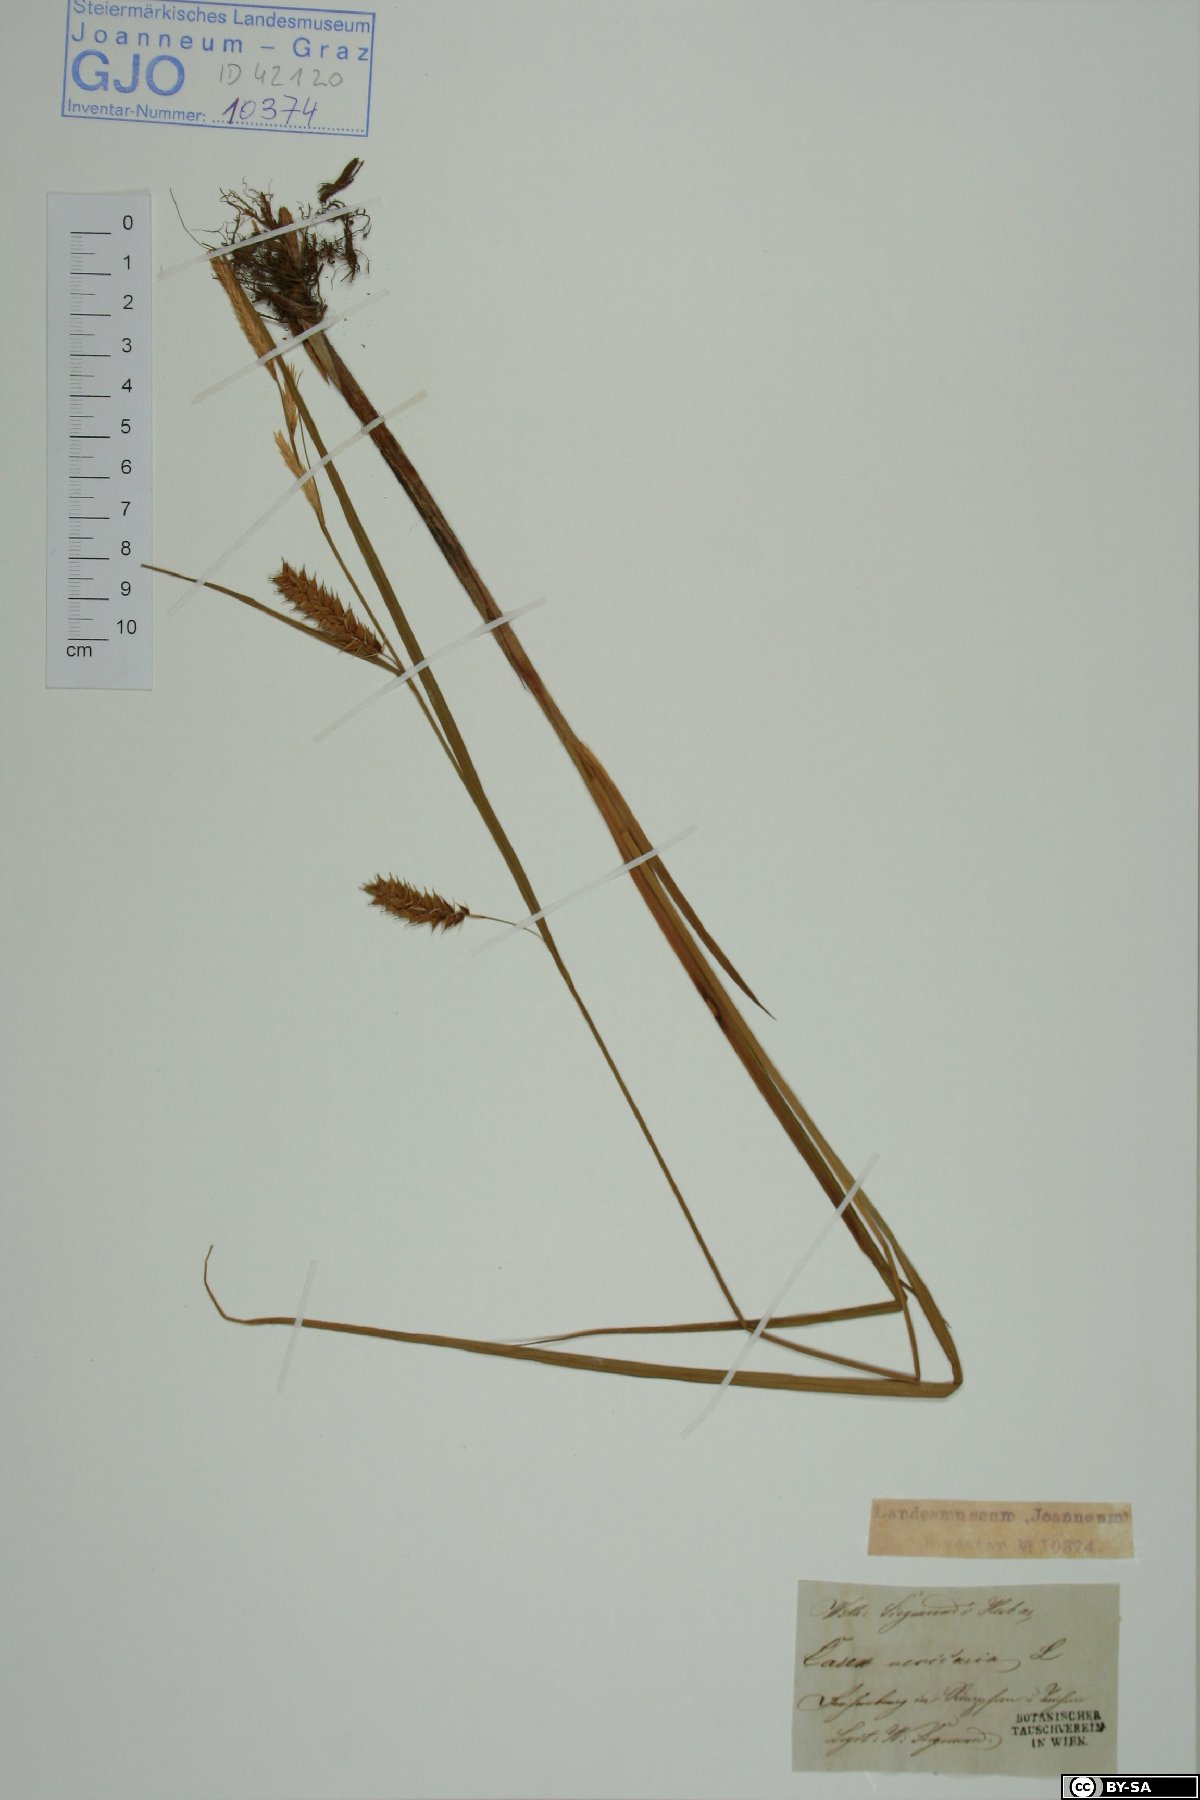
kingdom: Plantae
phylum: Tracheophyta
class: Liliopsida
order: Poales
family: Cyperaceae
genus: Carex
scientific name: Carex vesicaria
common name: Bladder-sedge
